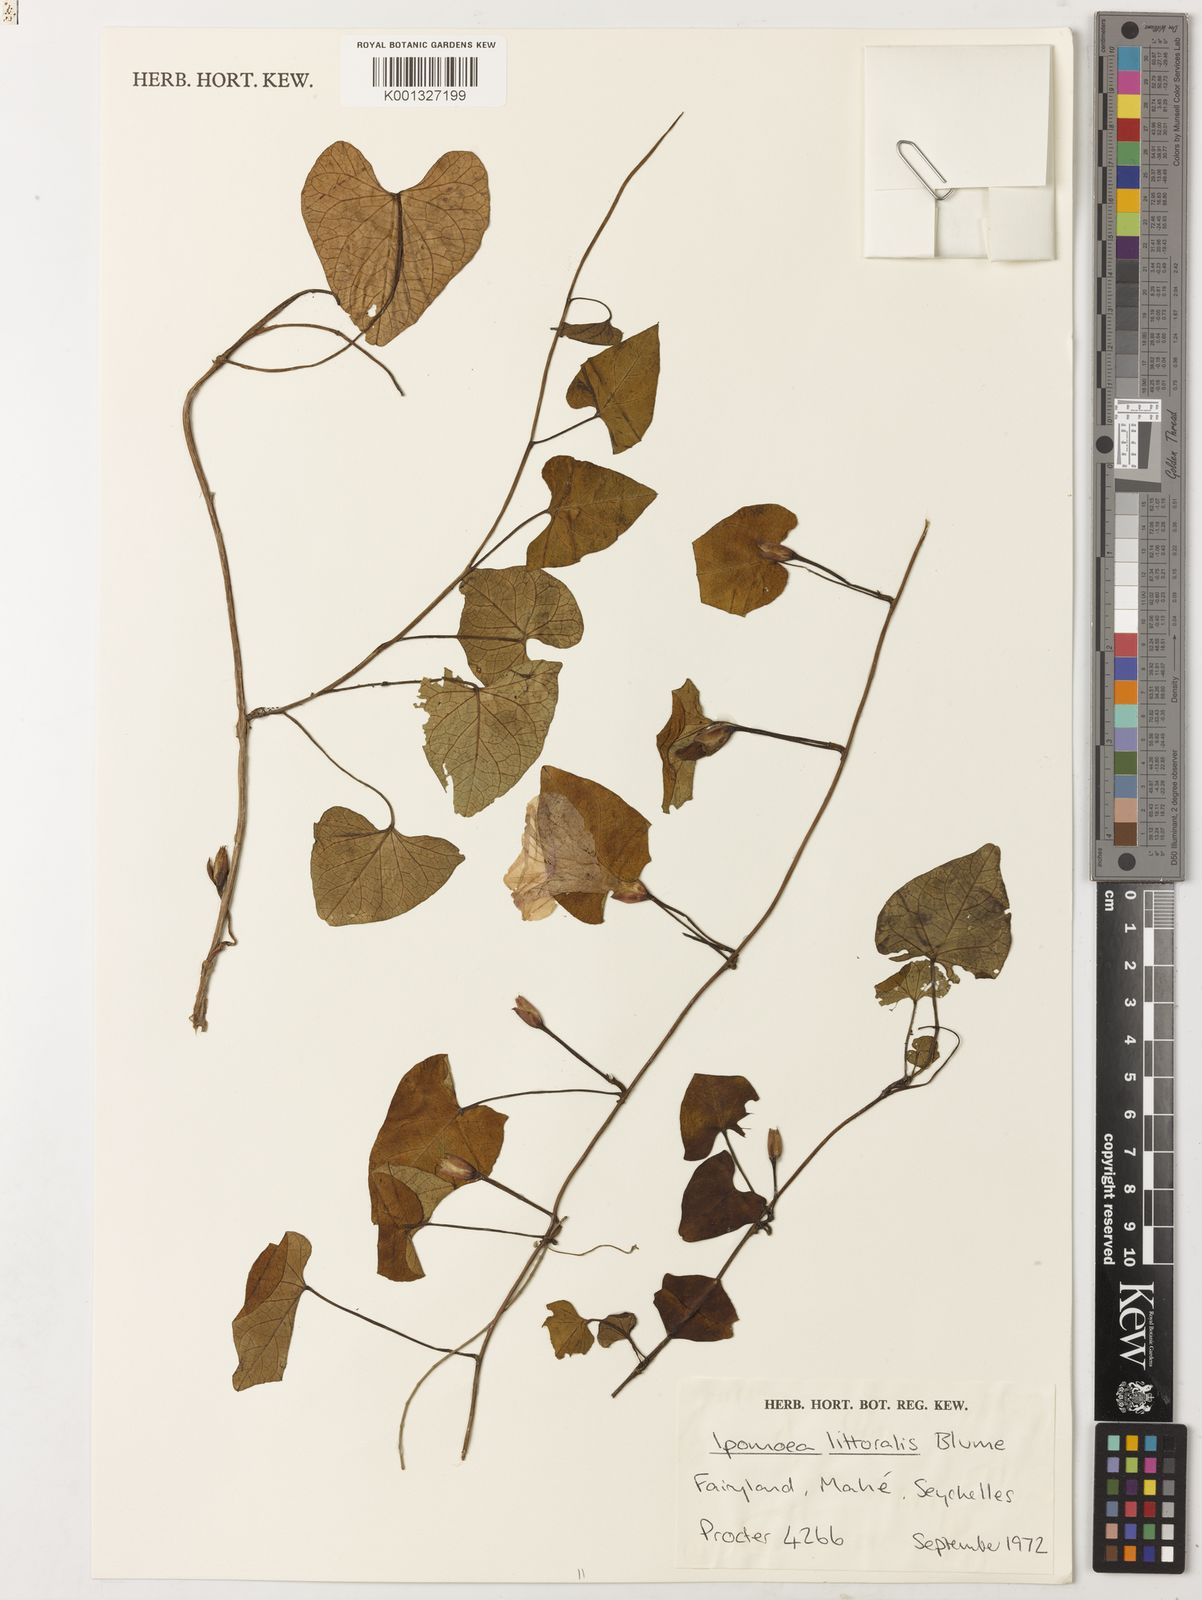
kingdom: Plantae
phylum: Tracheophyta
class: Magnoliopsida
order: Solanales
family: Convolvulaceae
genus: Ipomoea
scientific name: Ipomoea littoralis
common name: Coastal morning glory
